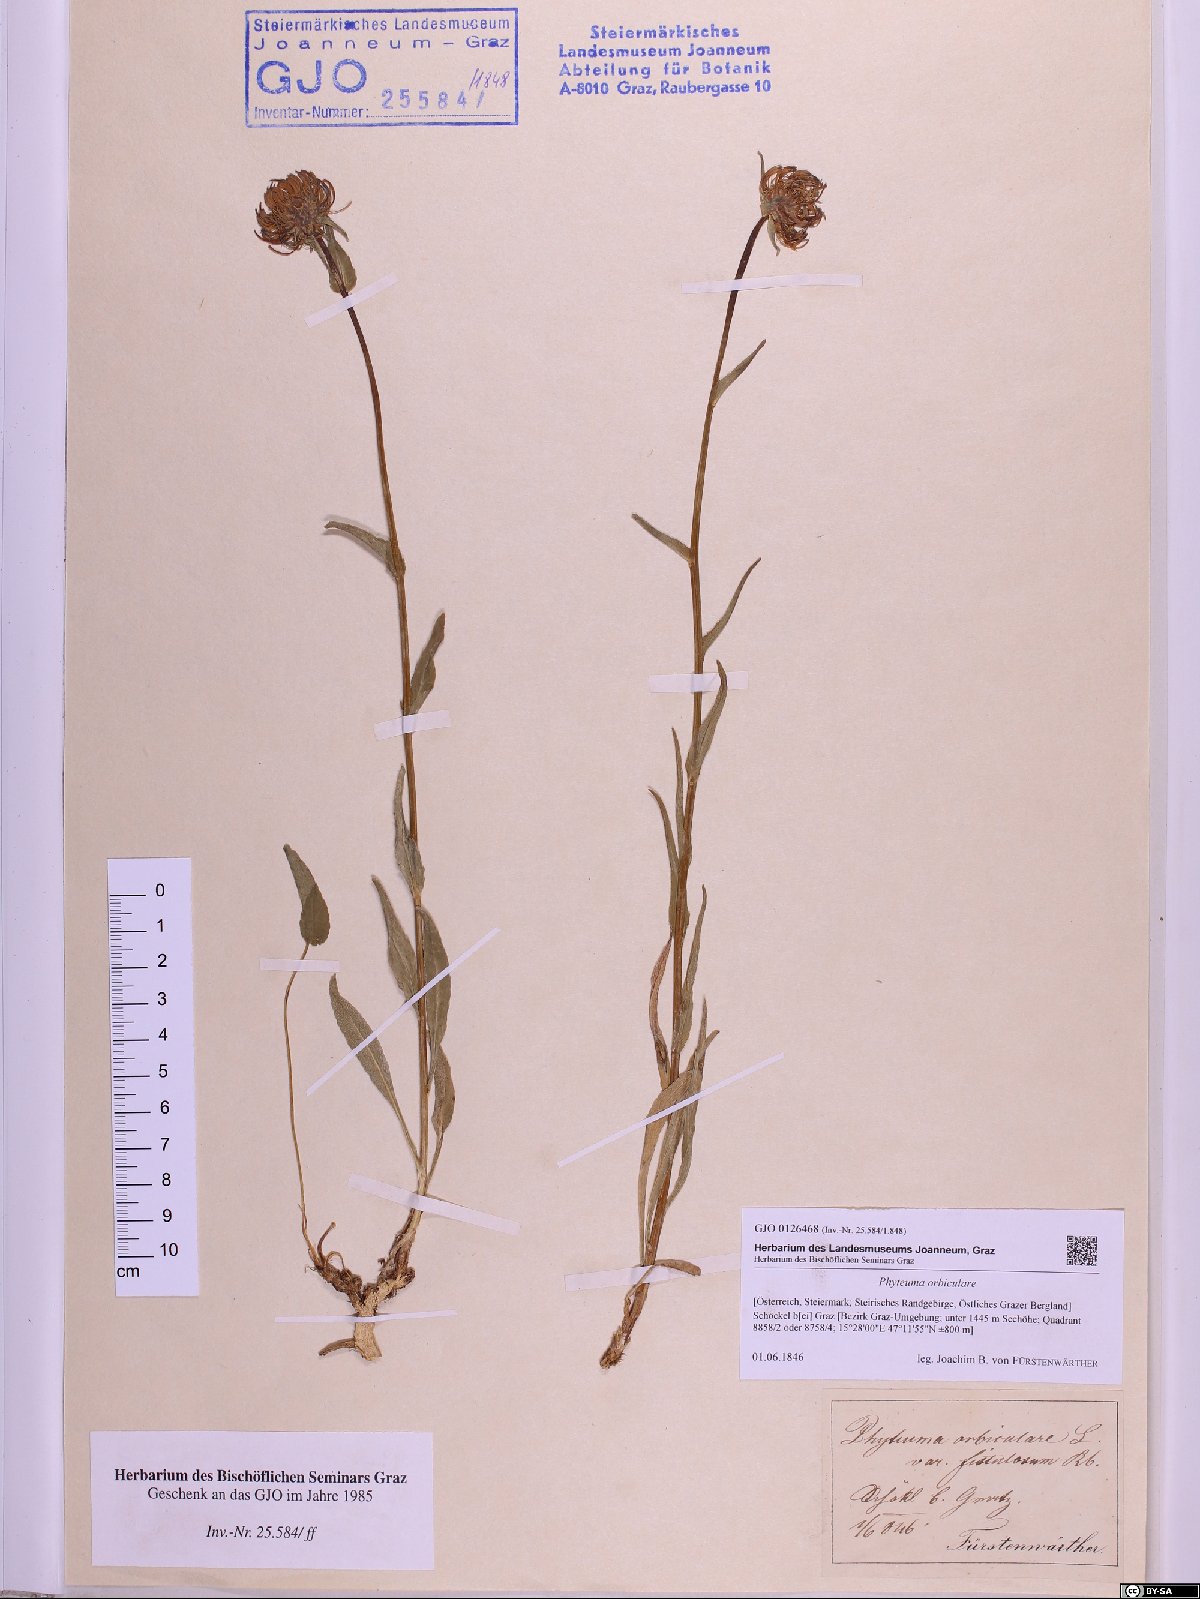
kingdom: Plantae
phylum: Tracheophyta
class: Magnoliopsida
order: Asterales
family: Campanulaceae
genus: Phyteuma
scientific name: Phyteuma orbiculare
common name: Round-headed rampion
